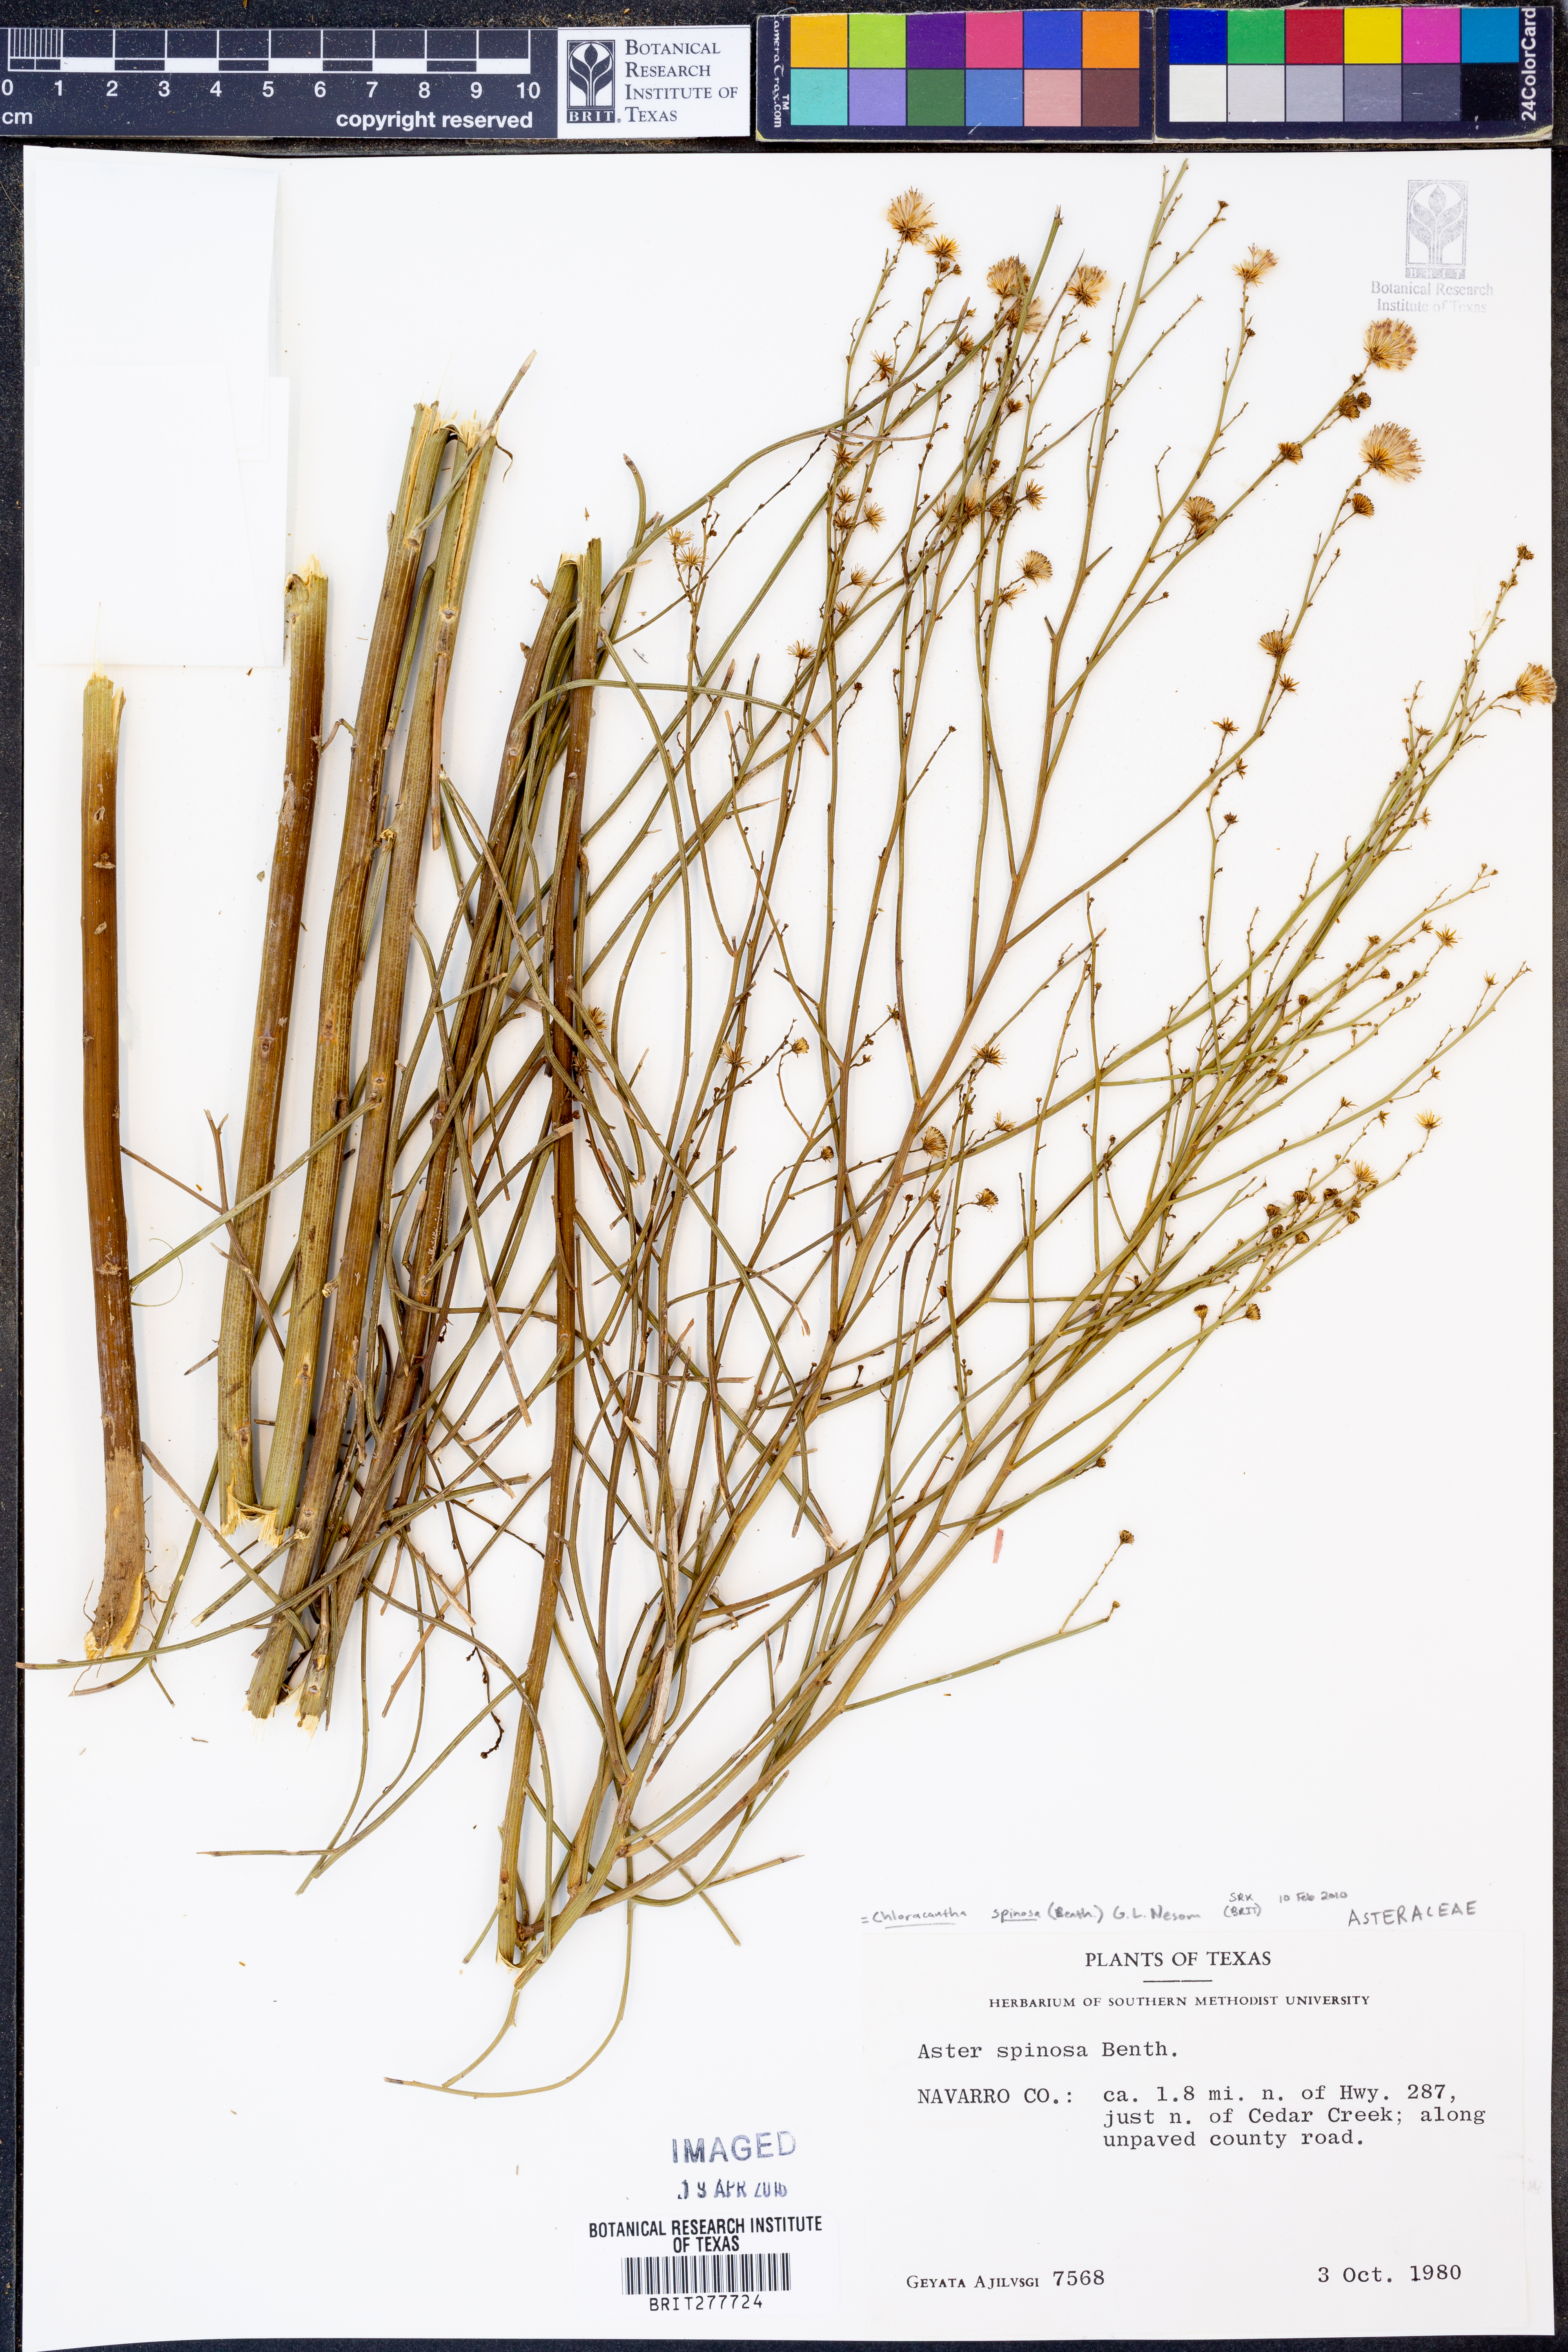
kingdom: Plantae
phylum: Tracheophyta
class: Magnoliopsida
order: Asterales
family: Asteraceae
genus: Chloracantha
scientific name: Chloracantha spinosa
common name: Mexican devilweed
